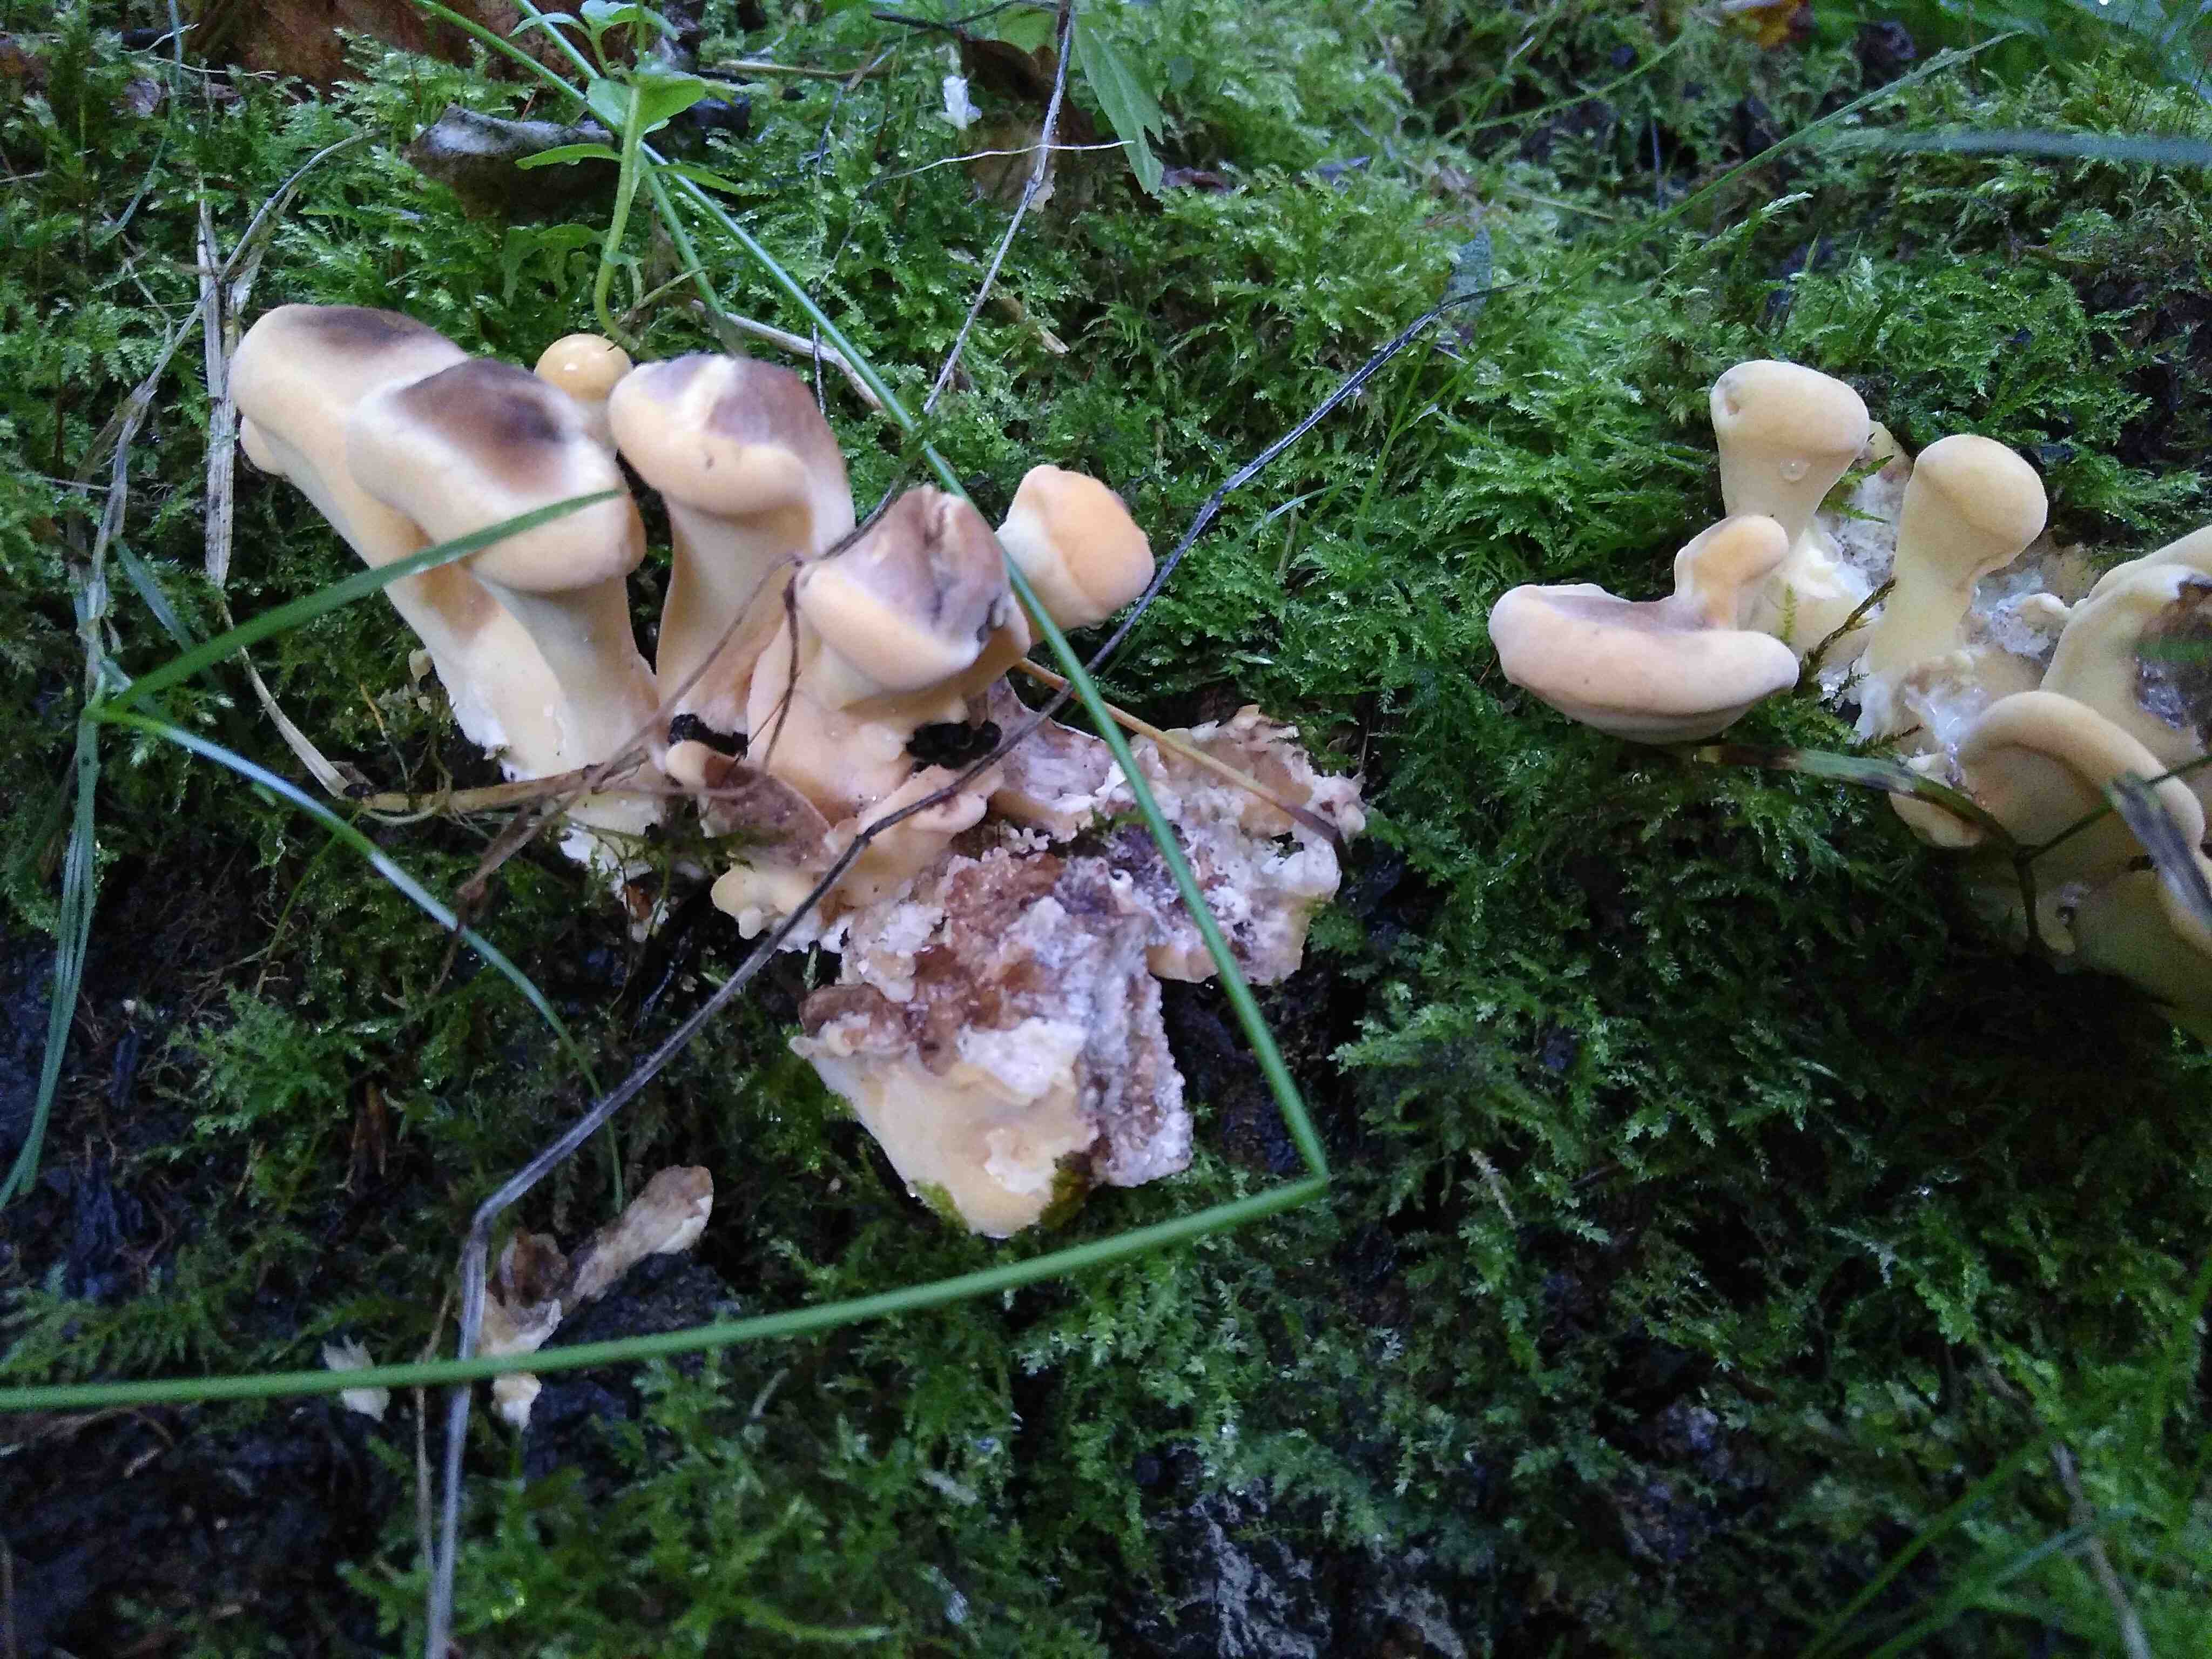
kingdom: Fungi
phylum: Basidiomycota
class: Agaricomycetes
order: Polyporales
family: Meripilaceae
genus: Meripilus
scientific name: Meripilus giganteus
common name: kæmpeporesvamp
